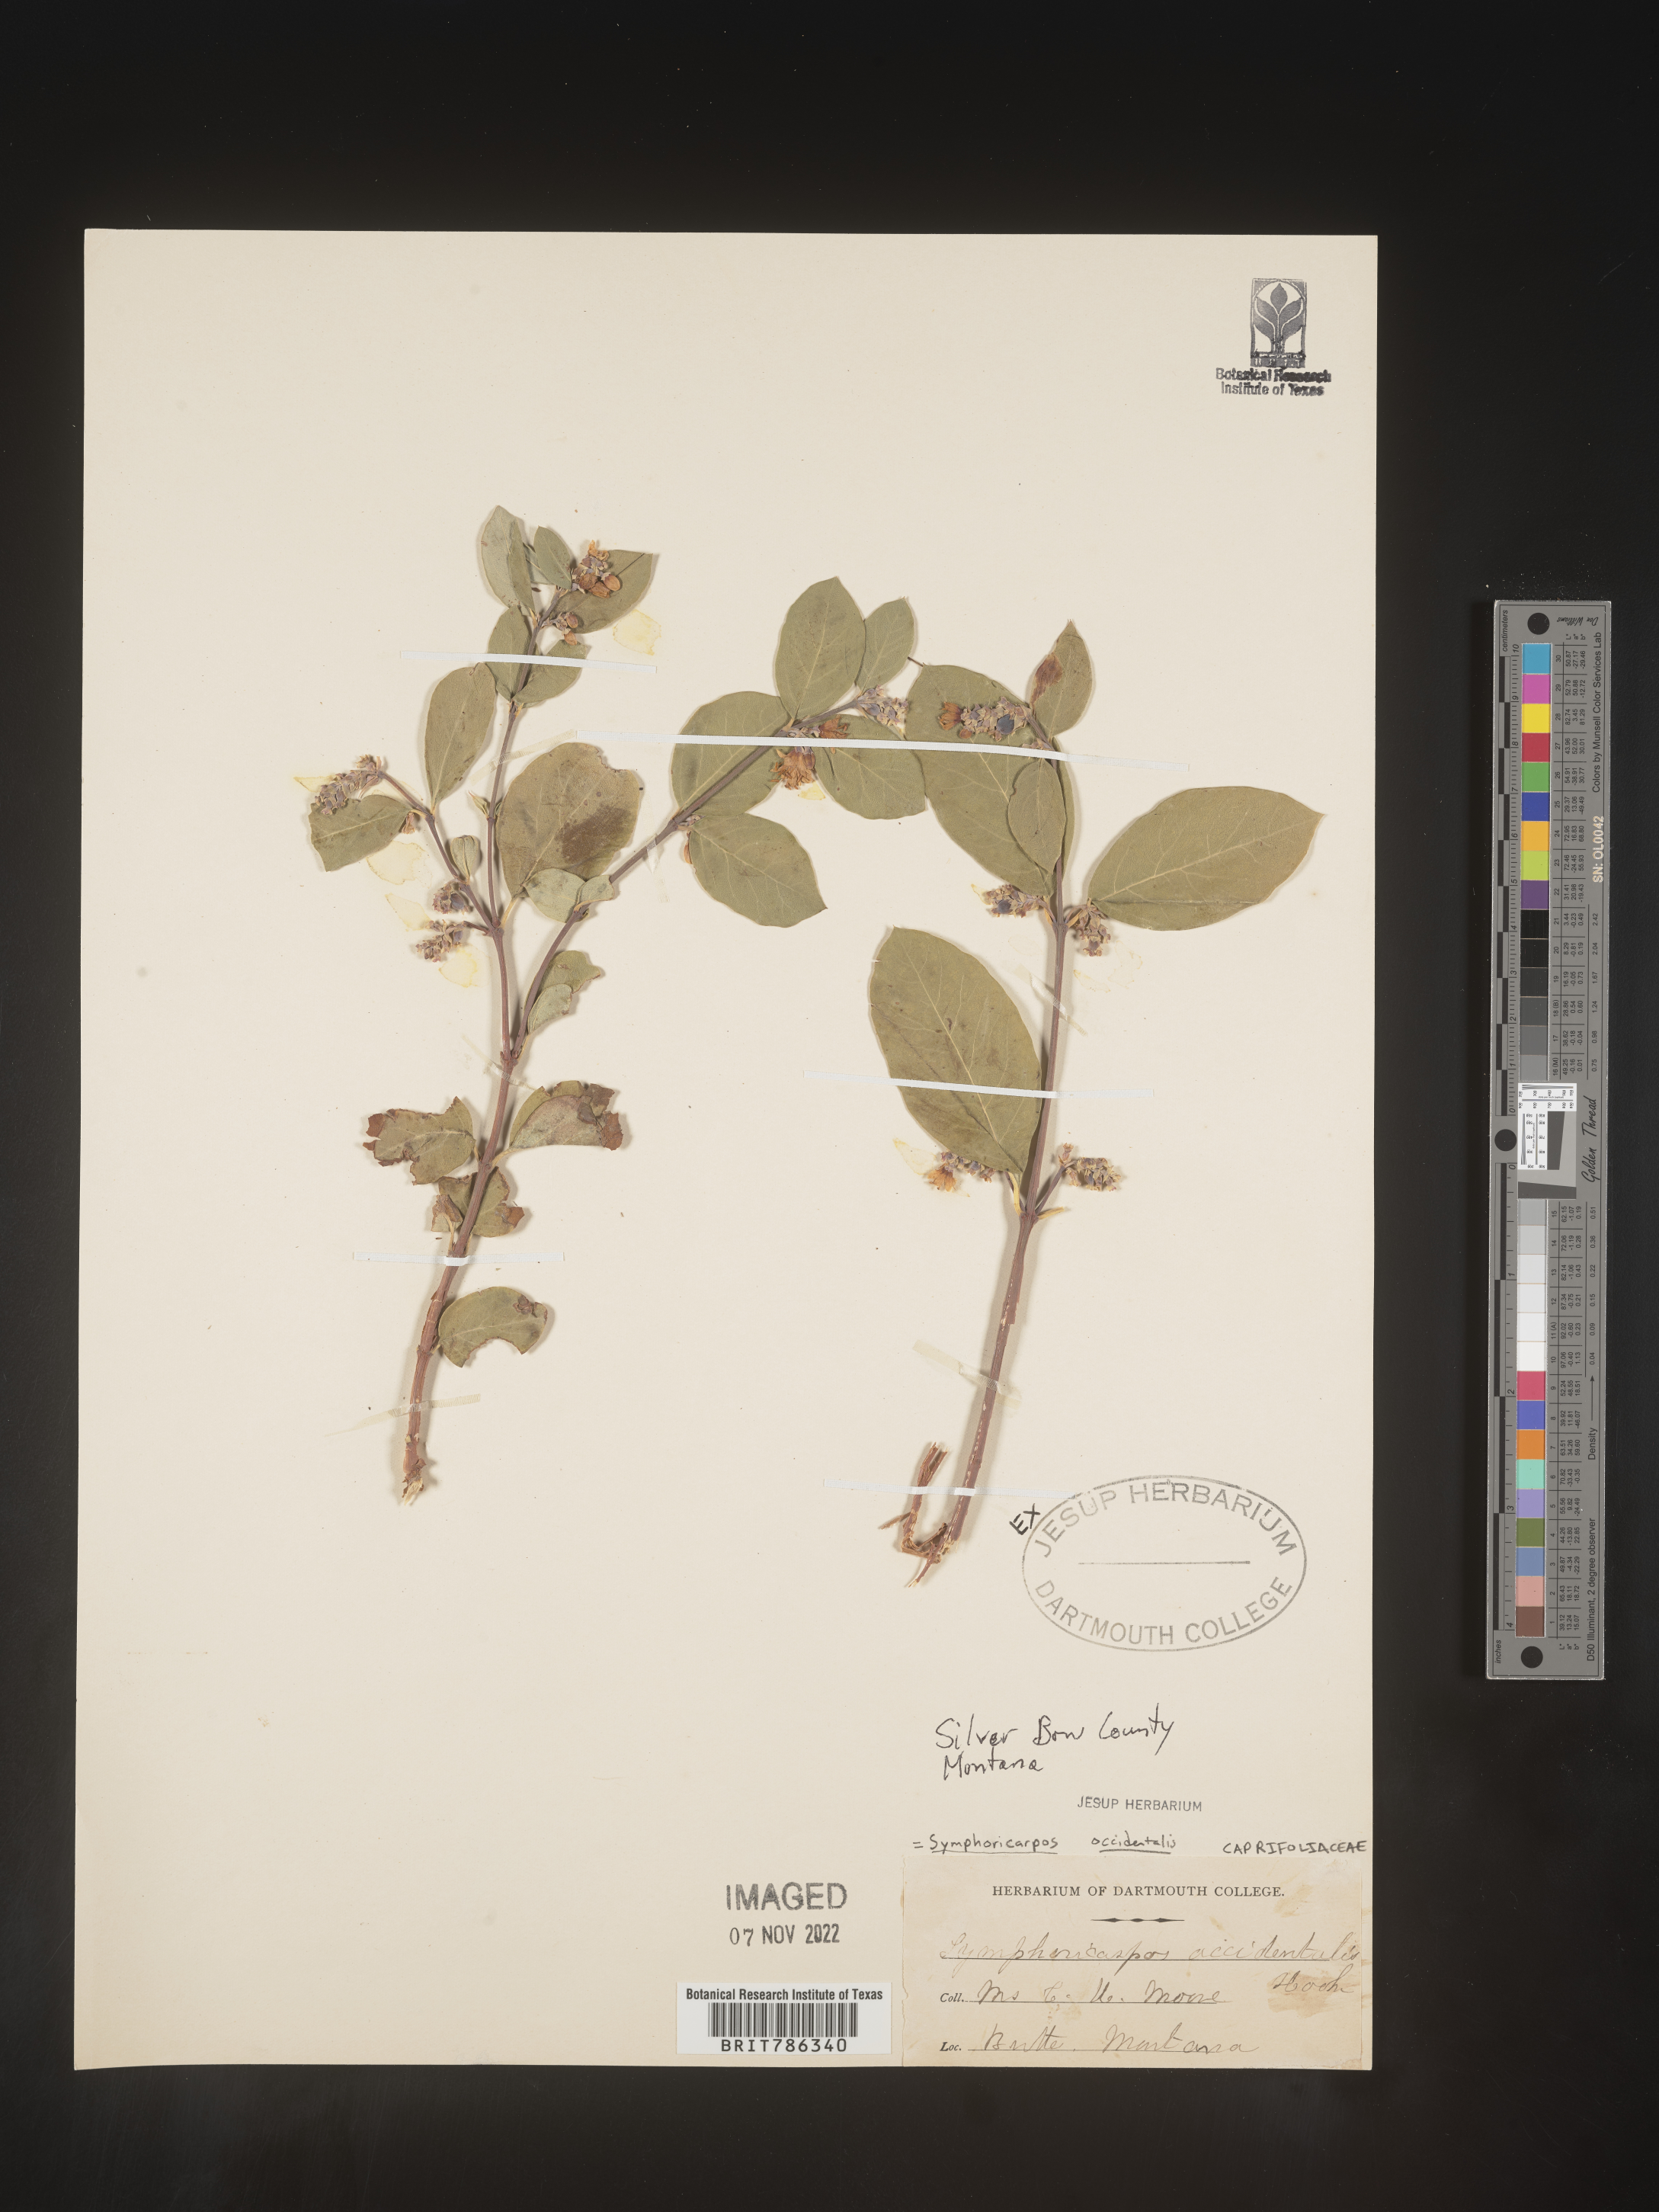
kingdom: Plantae
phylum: Tracheophyta
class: Magnoliopsida
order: Dipsacales
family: Caprifoliaceae
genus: Symphoricarpos
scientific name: Symphoricarpos occidentalis
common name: Wolfberry
